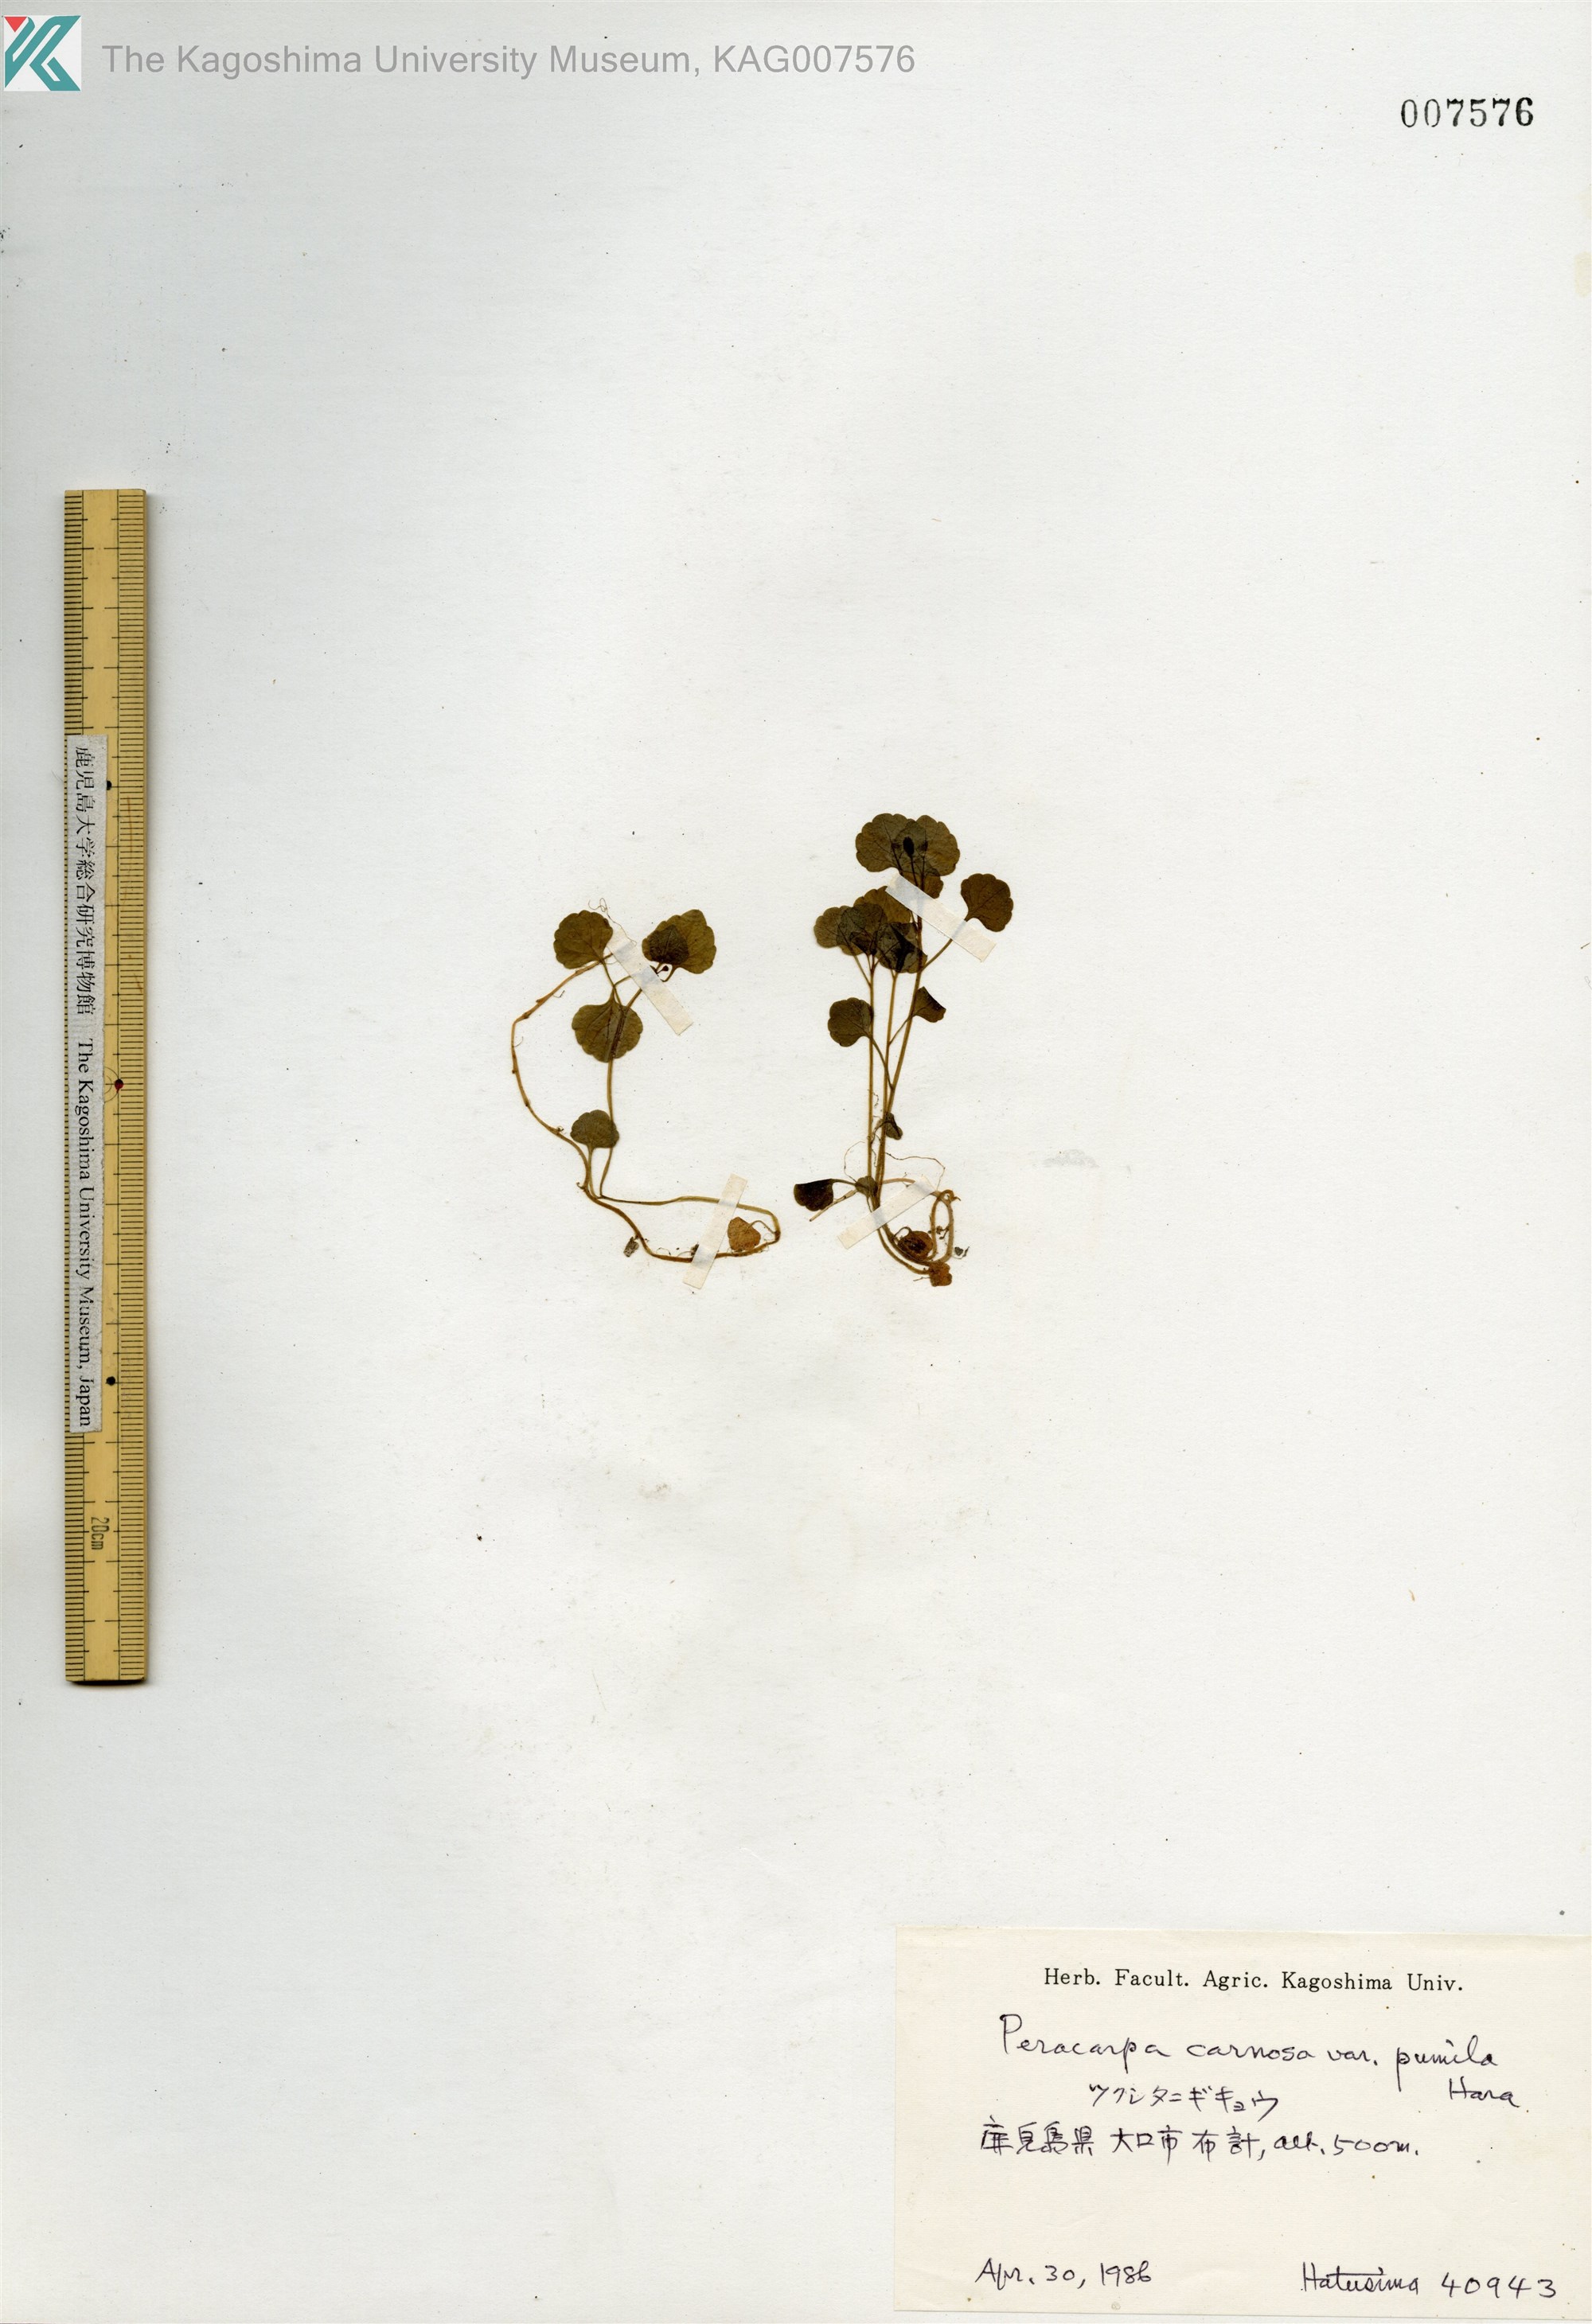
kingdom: Plantae
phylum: Tracheophyta
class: Magnoliopsida
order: Asterales
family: Campanulaceae
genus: Peracarpa
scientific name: Peracarpa carnosa
